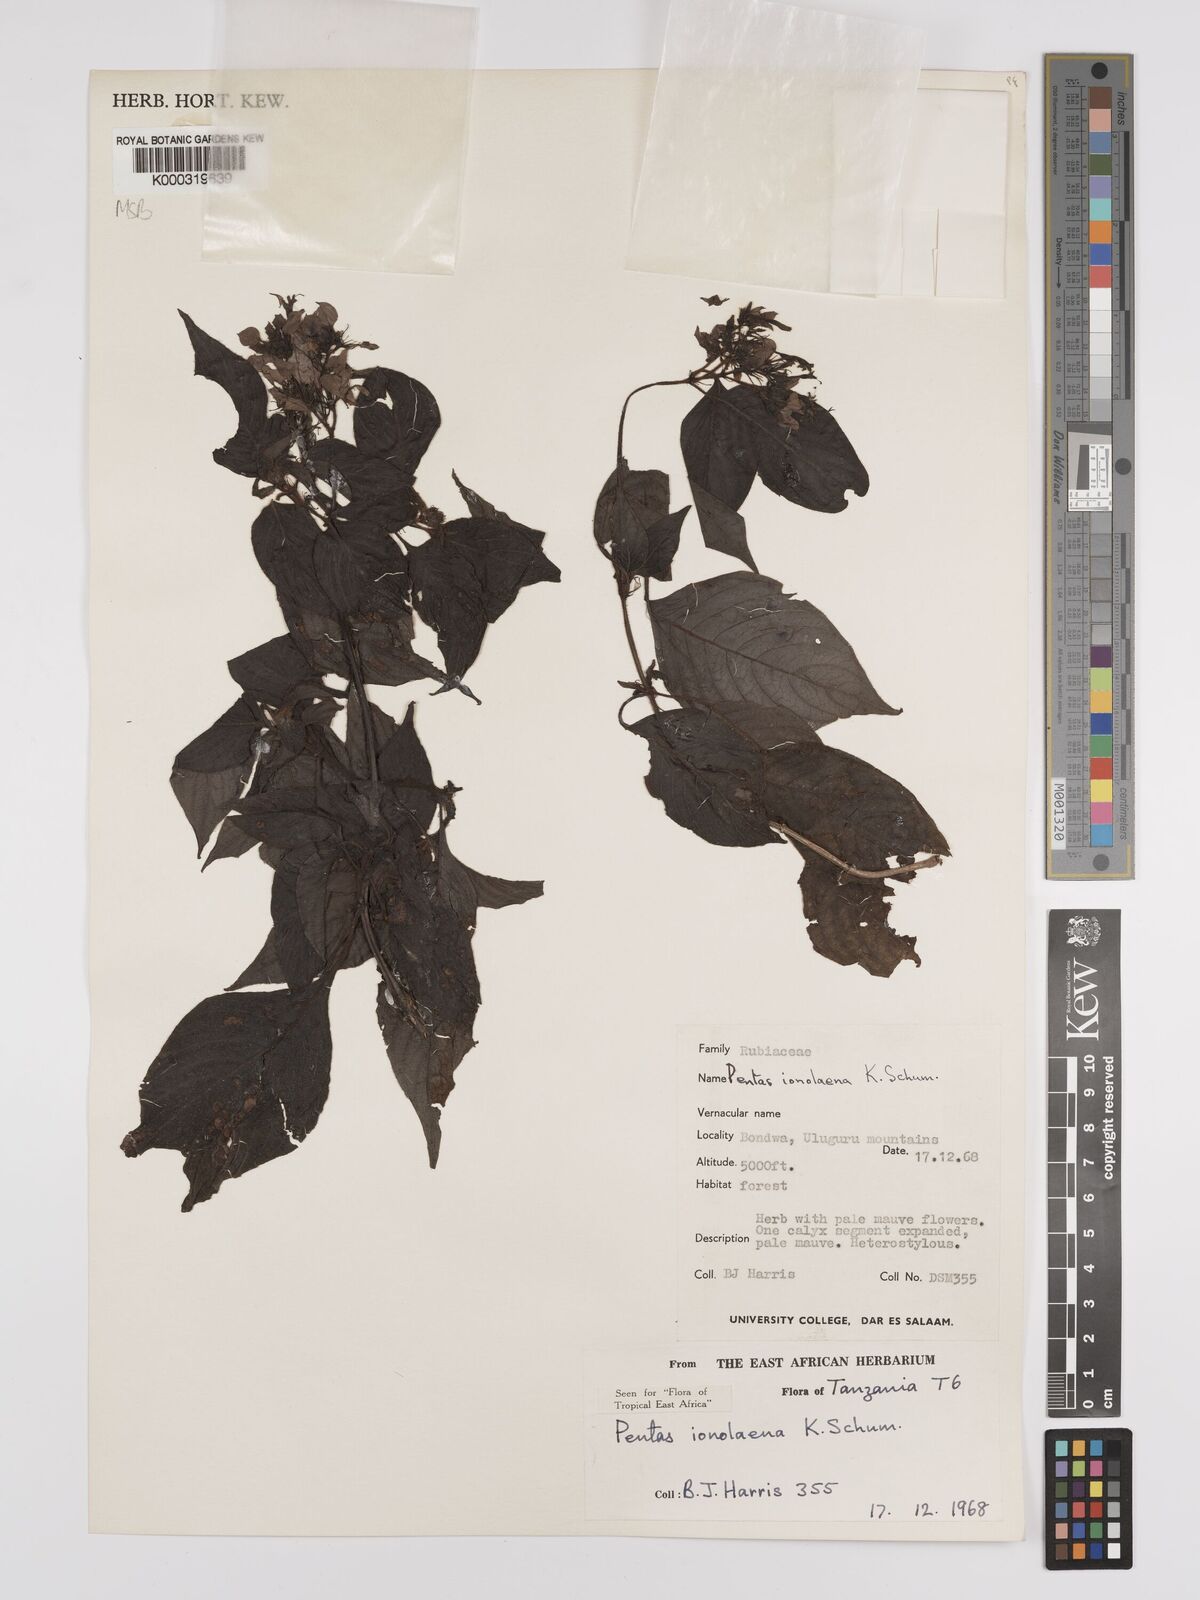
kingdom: Plantae
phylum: Tracheophyta
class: Magnoliopsida
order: Gentianales
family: Rubiaceae
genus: Phyllopentas
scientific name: Phyllopentas ionolaena
